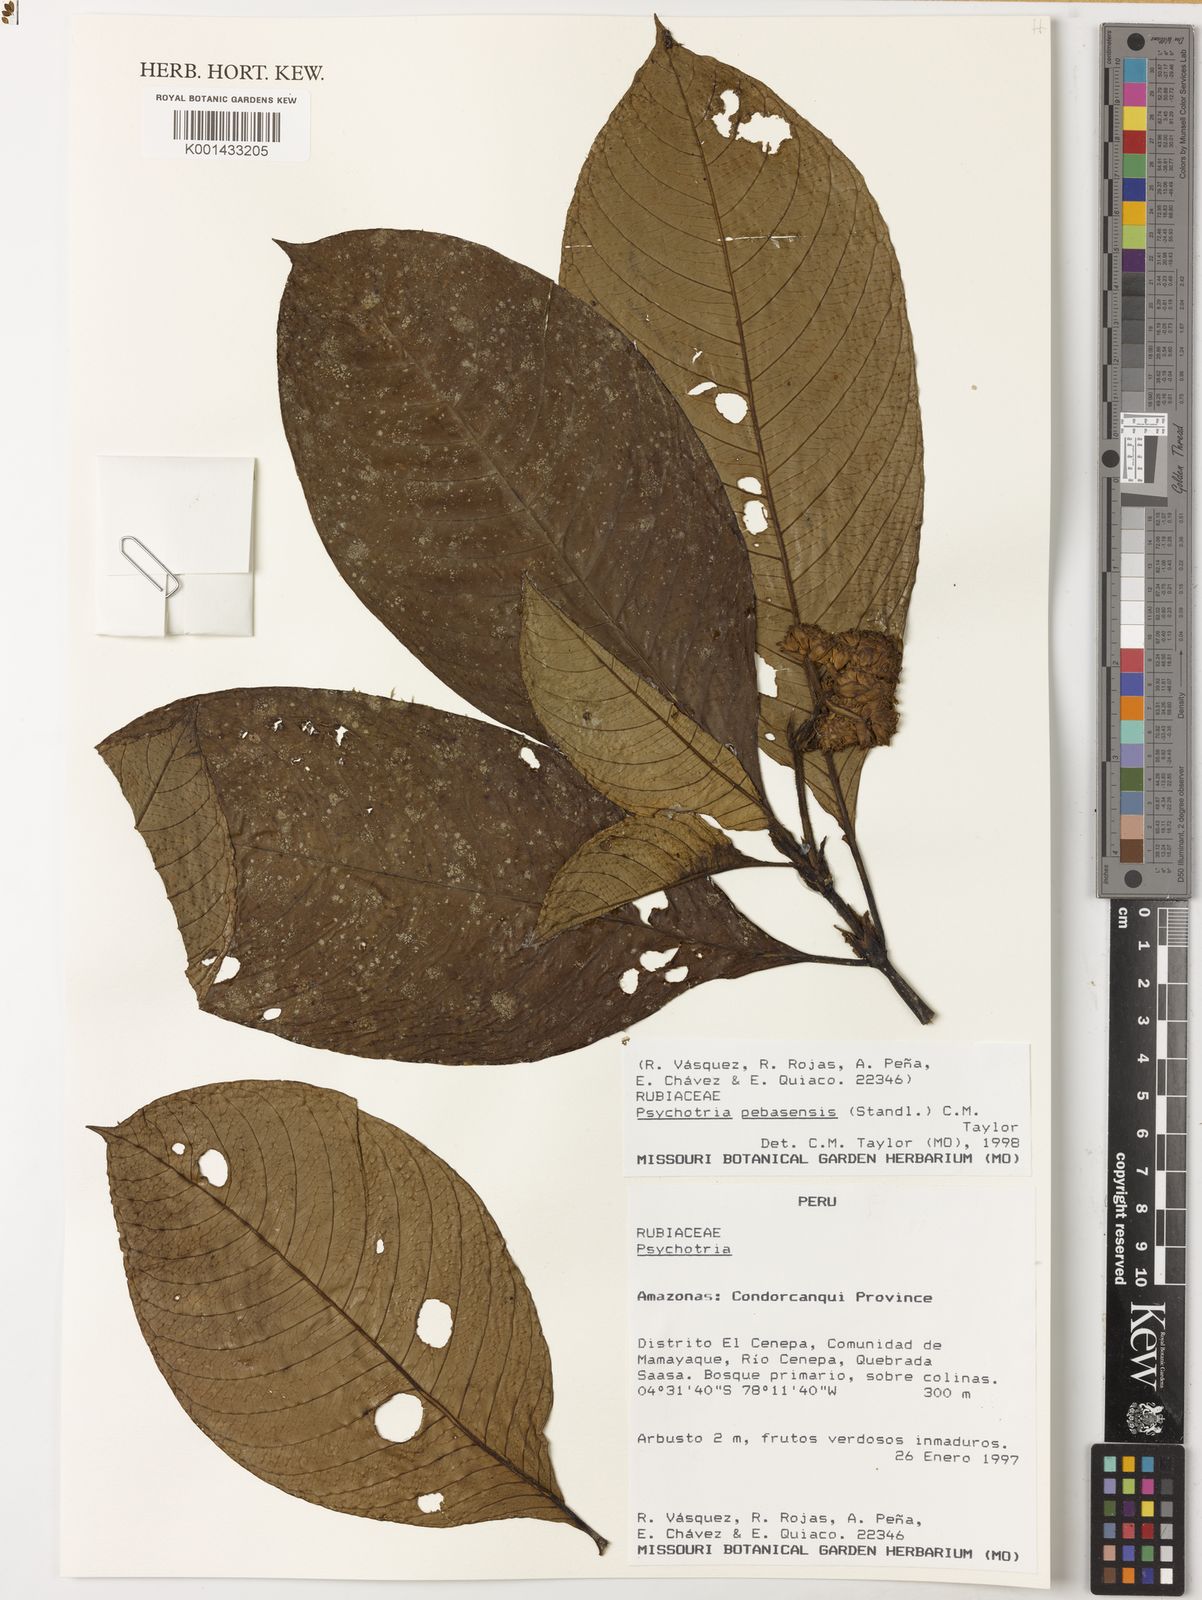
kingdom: Plantae
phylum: Tracheophyta
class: Magnoliopsida
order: Gentianales
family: Rubiaceae
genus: Palicourea
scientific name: Palicourea pebasensis
